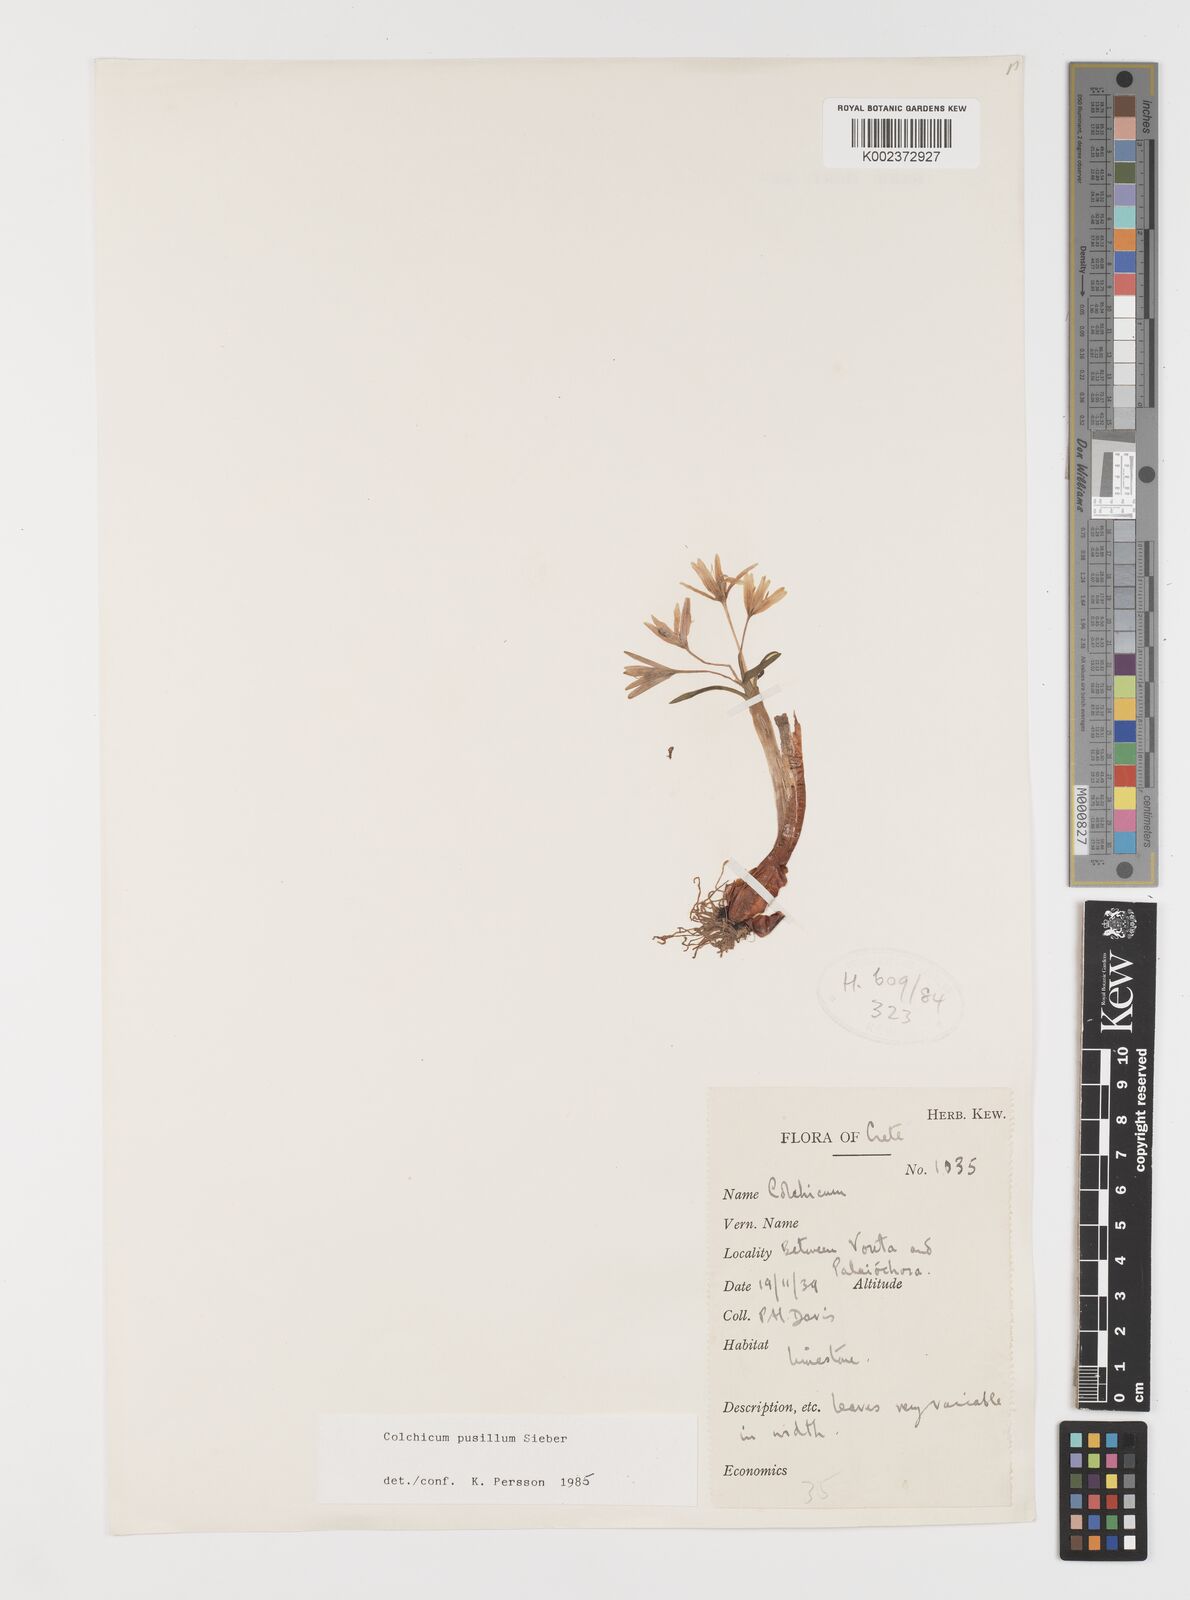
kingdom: Plantae
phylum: Tracheophyta
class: Liliopsida
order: Liliales
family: Colchicaceae
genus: Colchicum
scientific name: Colchicum pusillum
